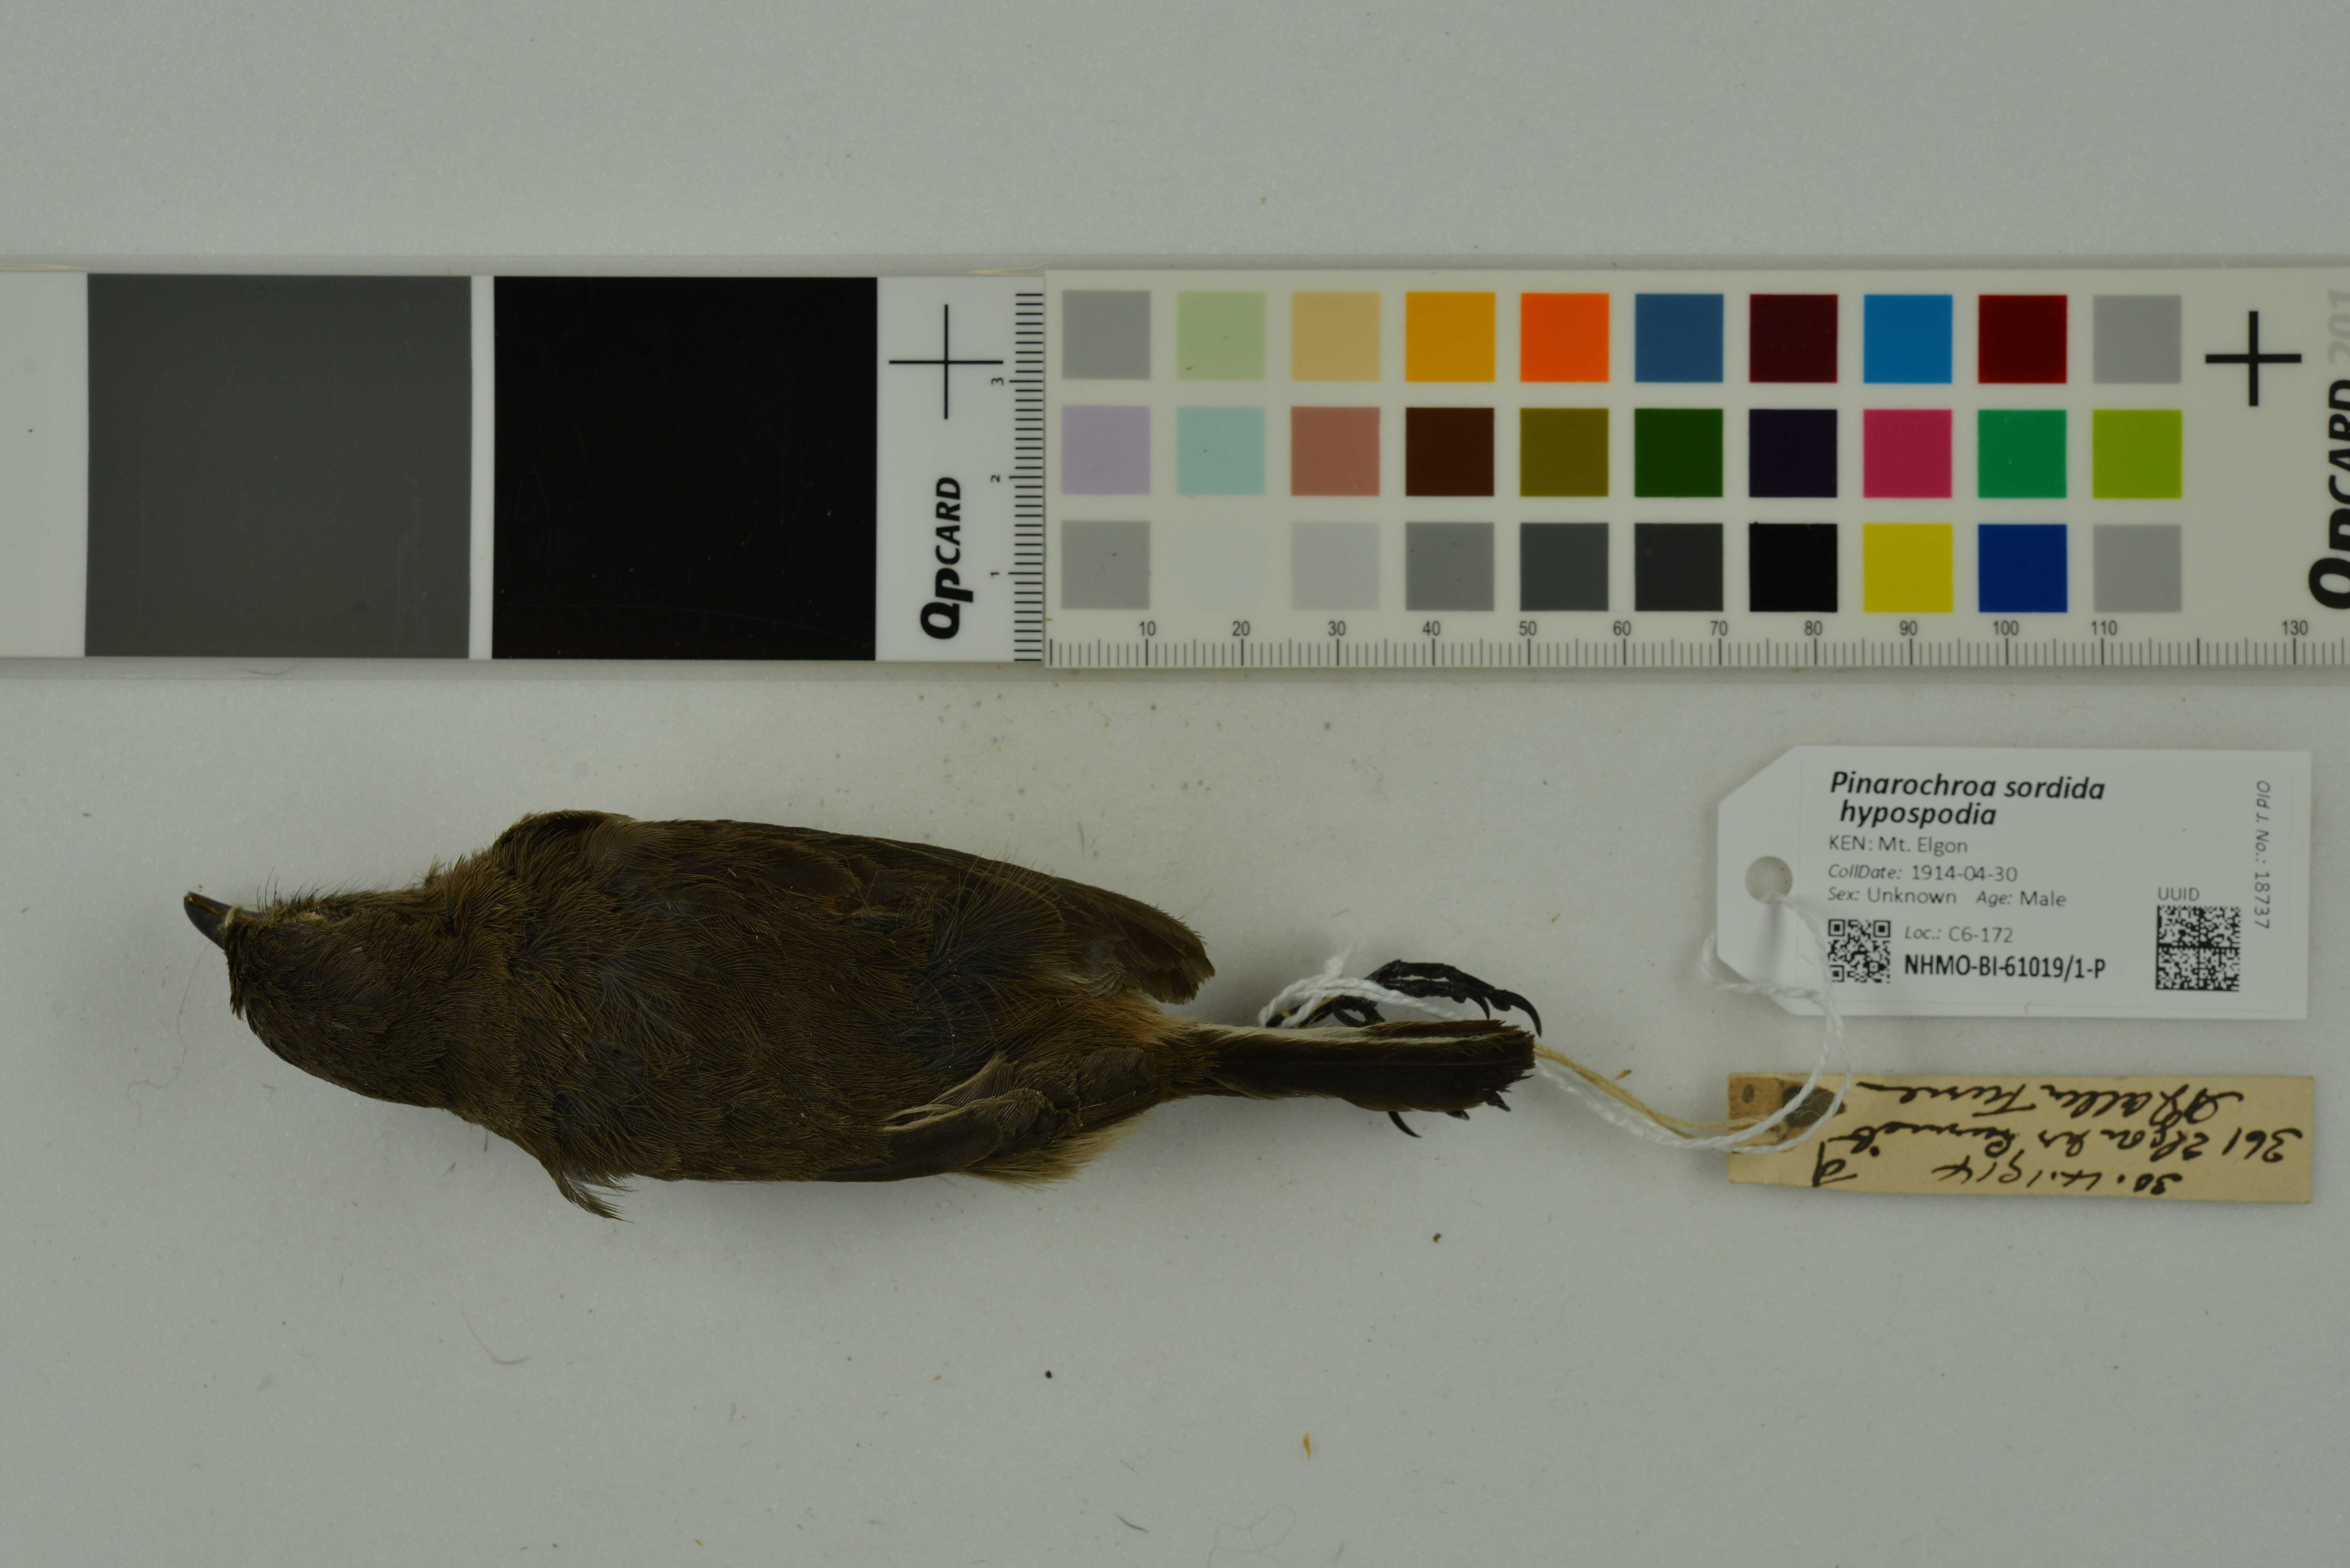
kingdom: Animalia
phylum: Chordata
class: Aves
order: Passeriformes
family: Muscicapidae
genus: Pinarochroa
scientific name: Pinarochroa sordida
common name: Moorland chat
